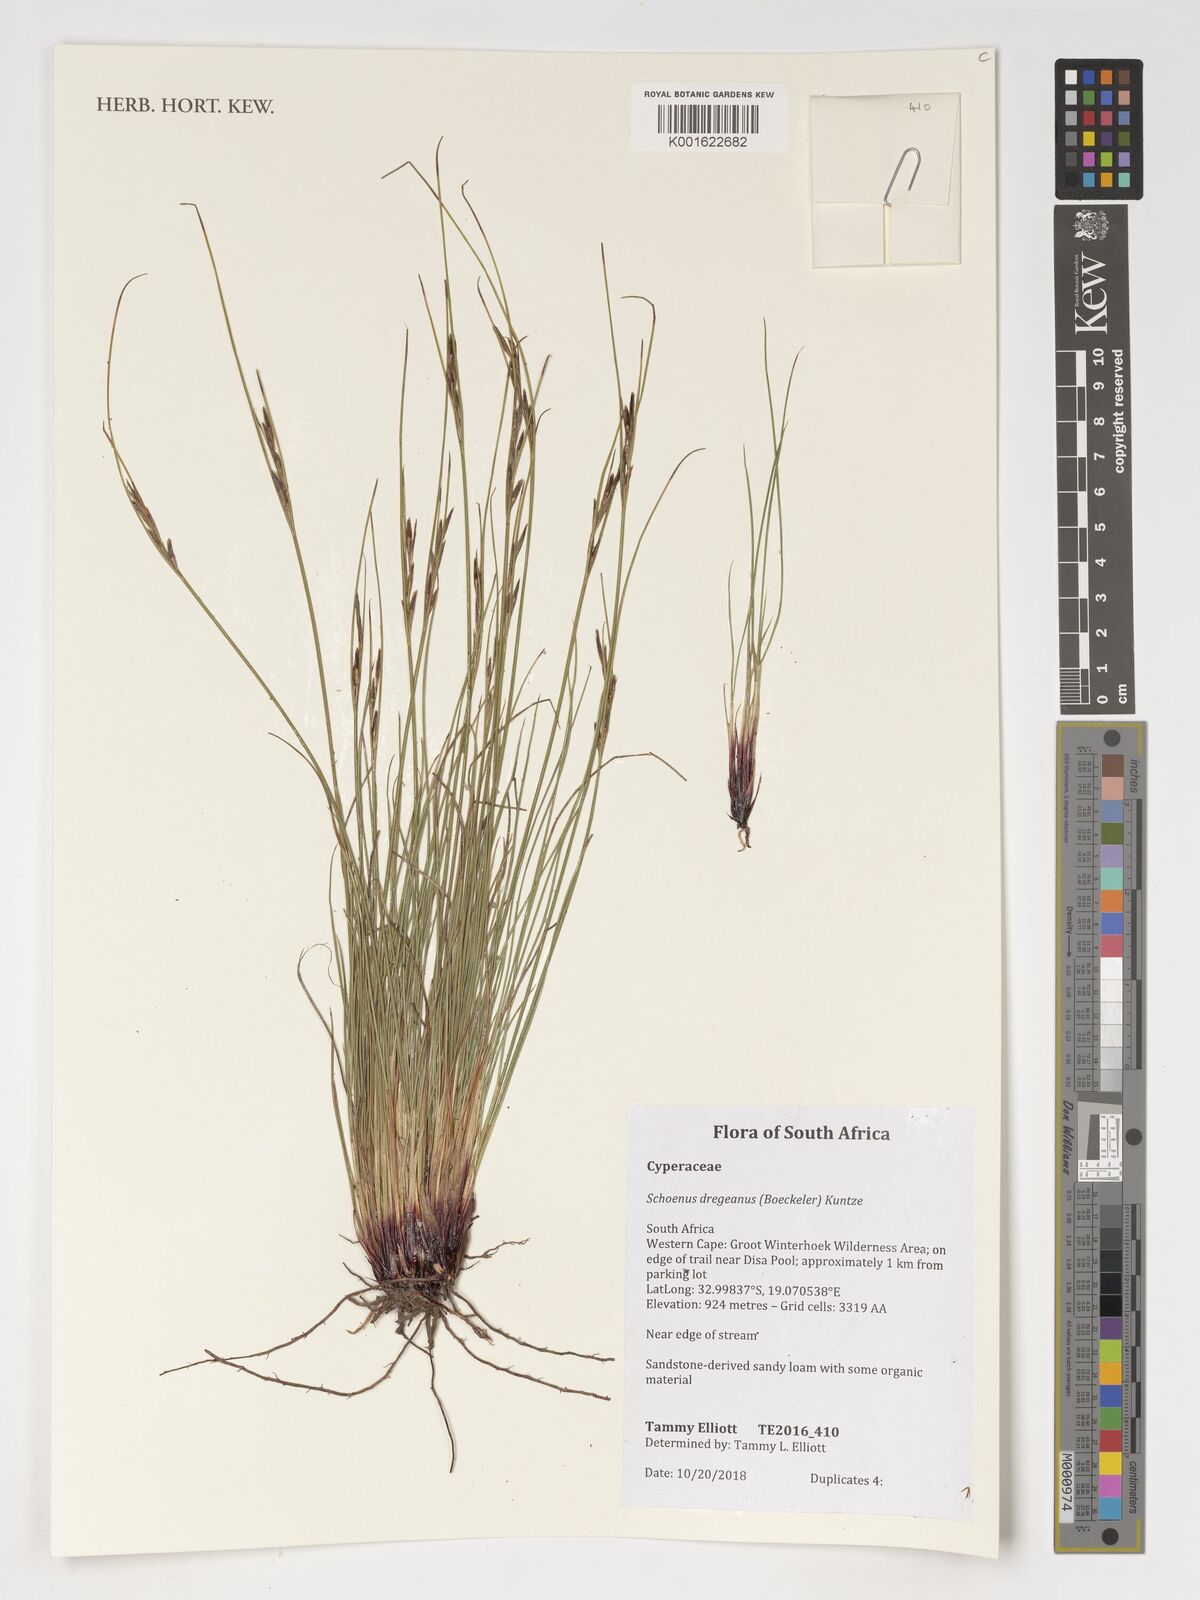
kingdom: Plantae
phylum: Tracheophyta
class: Liliopsida
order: Poales
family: Cyperaceae
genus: Schoenus
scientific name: Schoenus dregeanus
